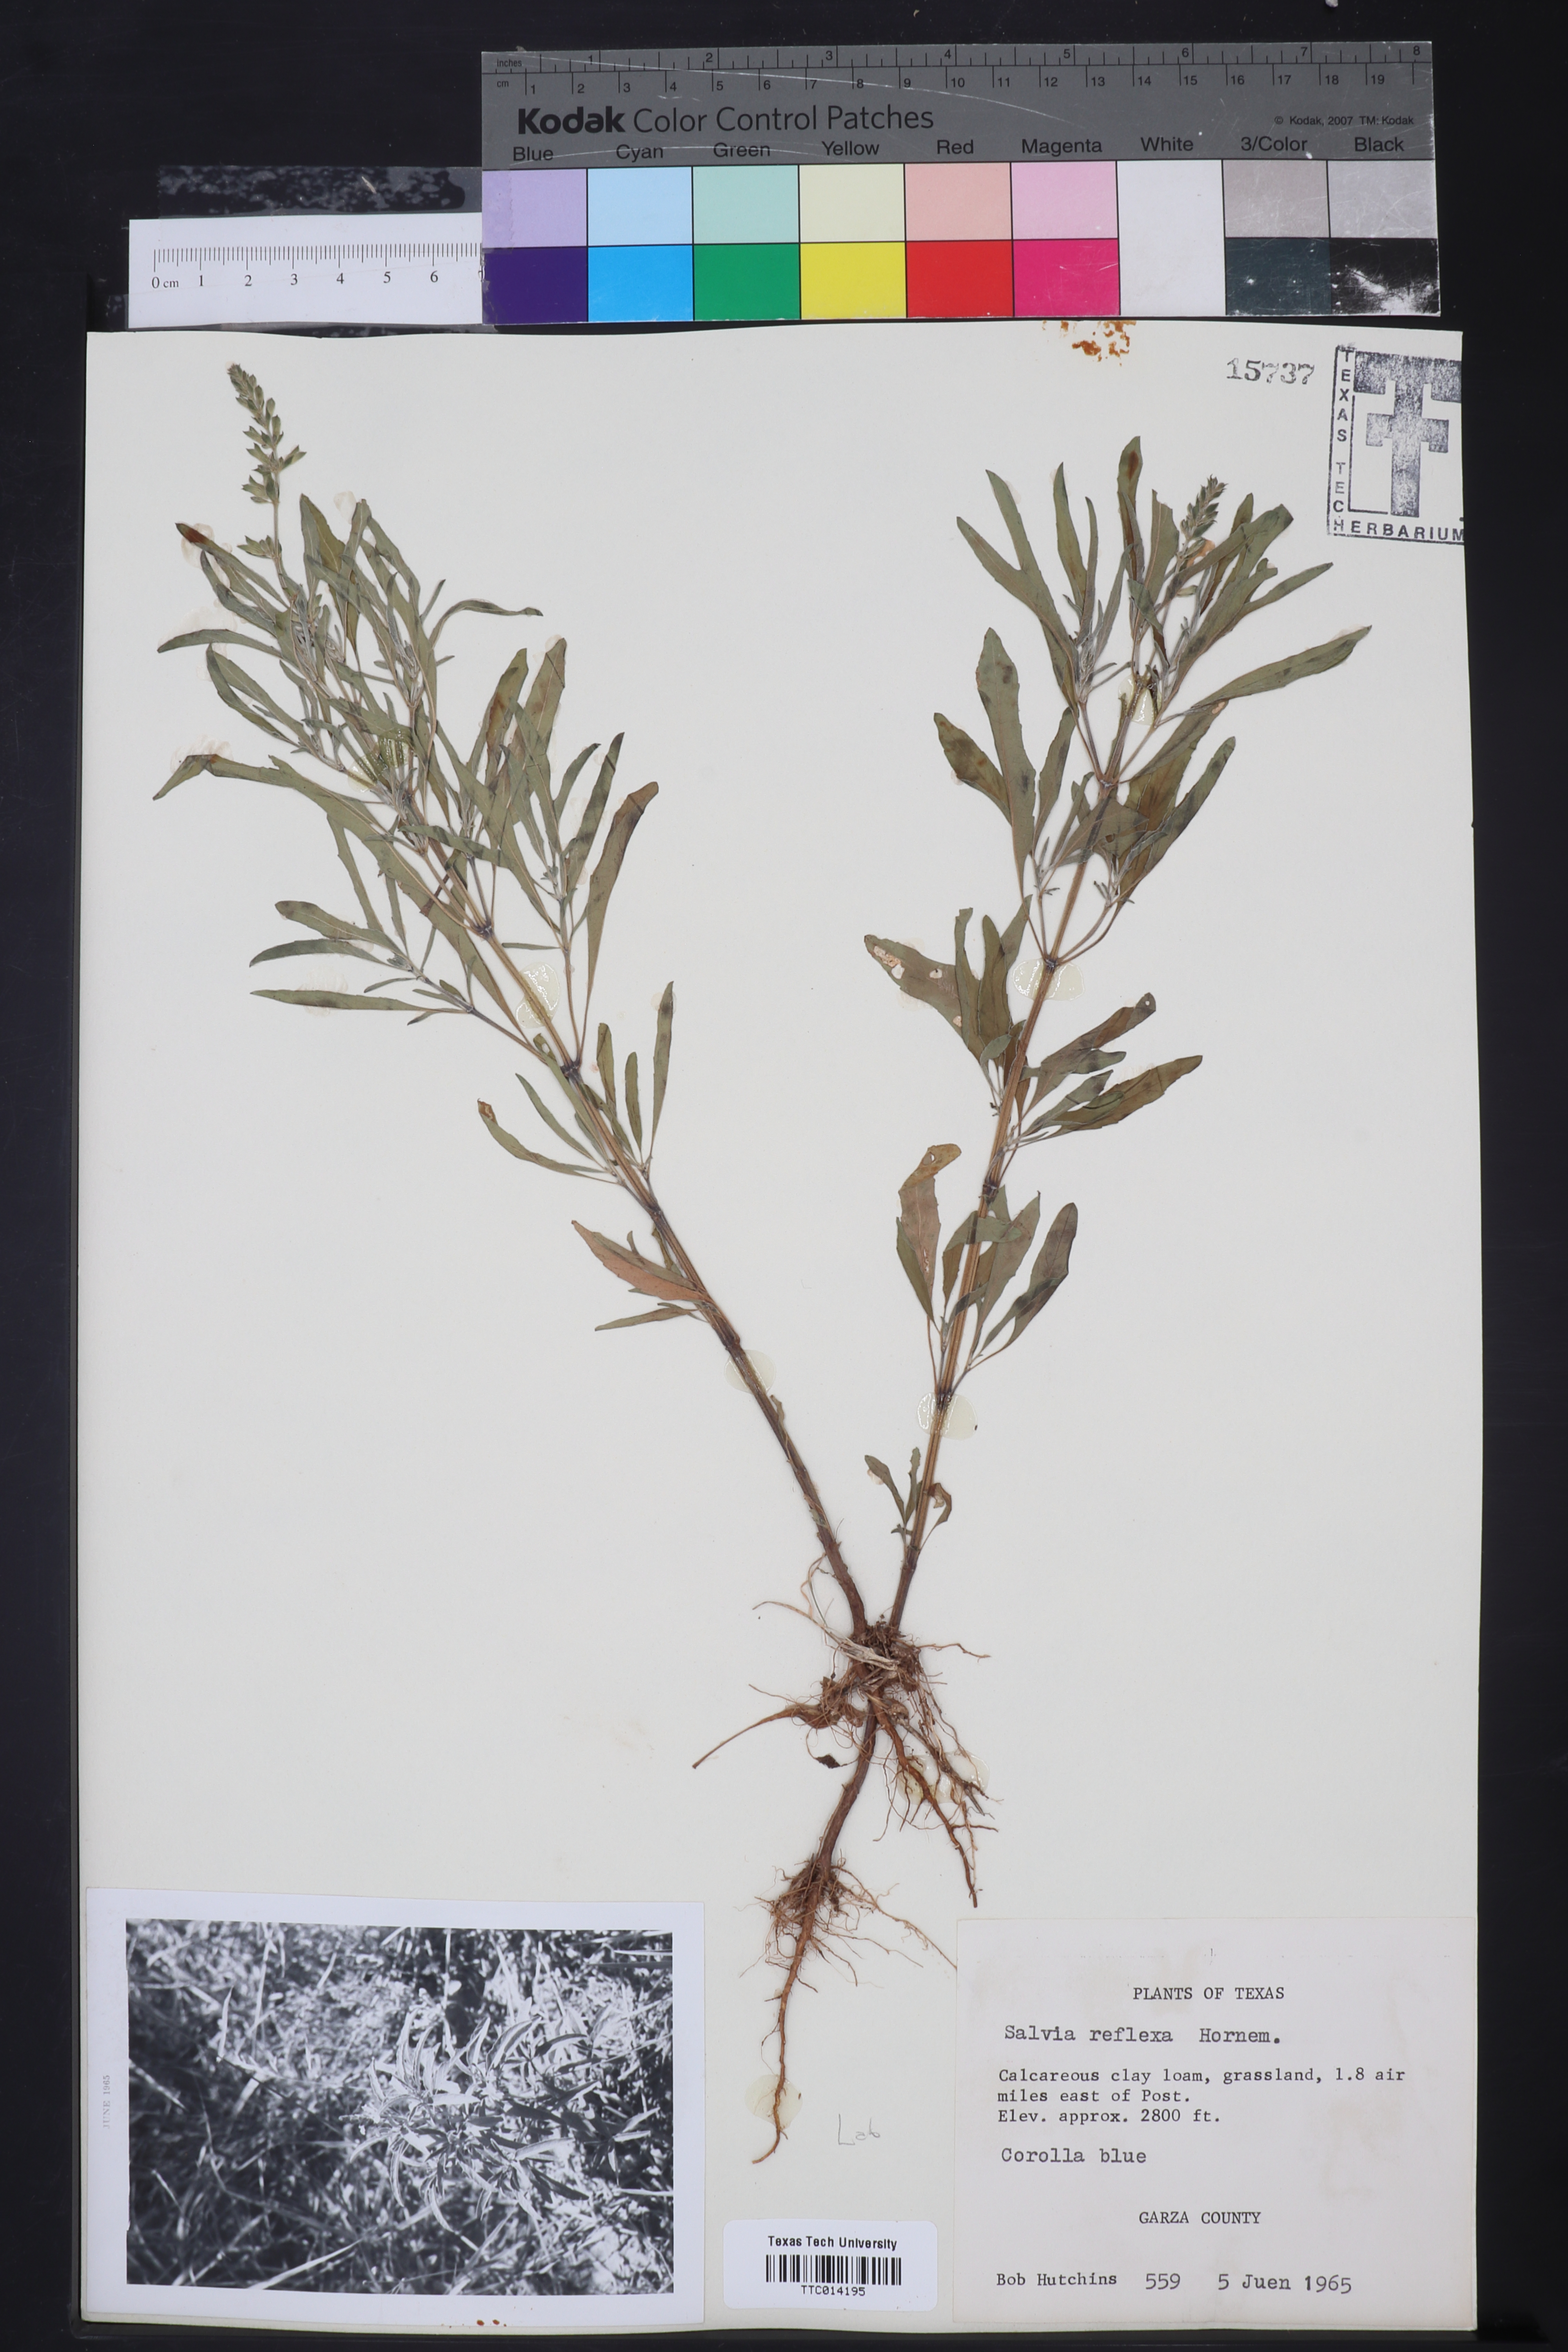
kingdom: Plantae
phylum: Tracheophyta
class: Magnoliopsida
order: Lamiales
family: Lamiaceae
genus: Salvia
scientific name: Salvia reflexa
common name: Mintweed
